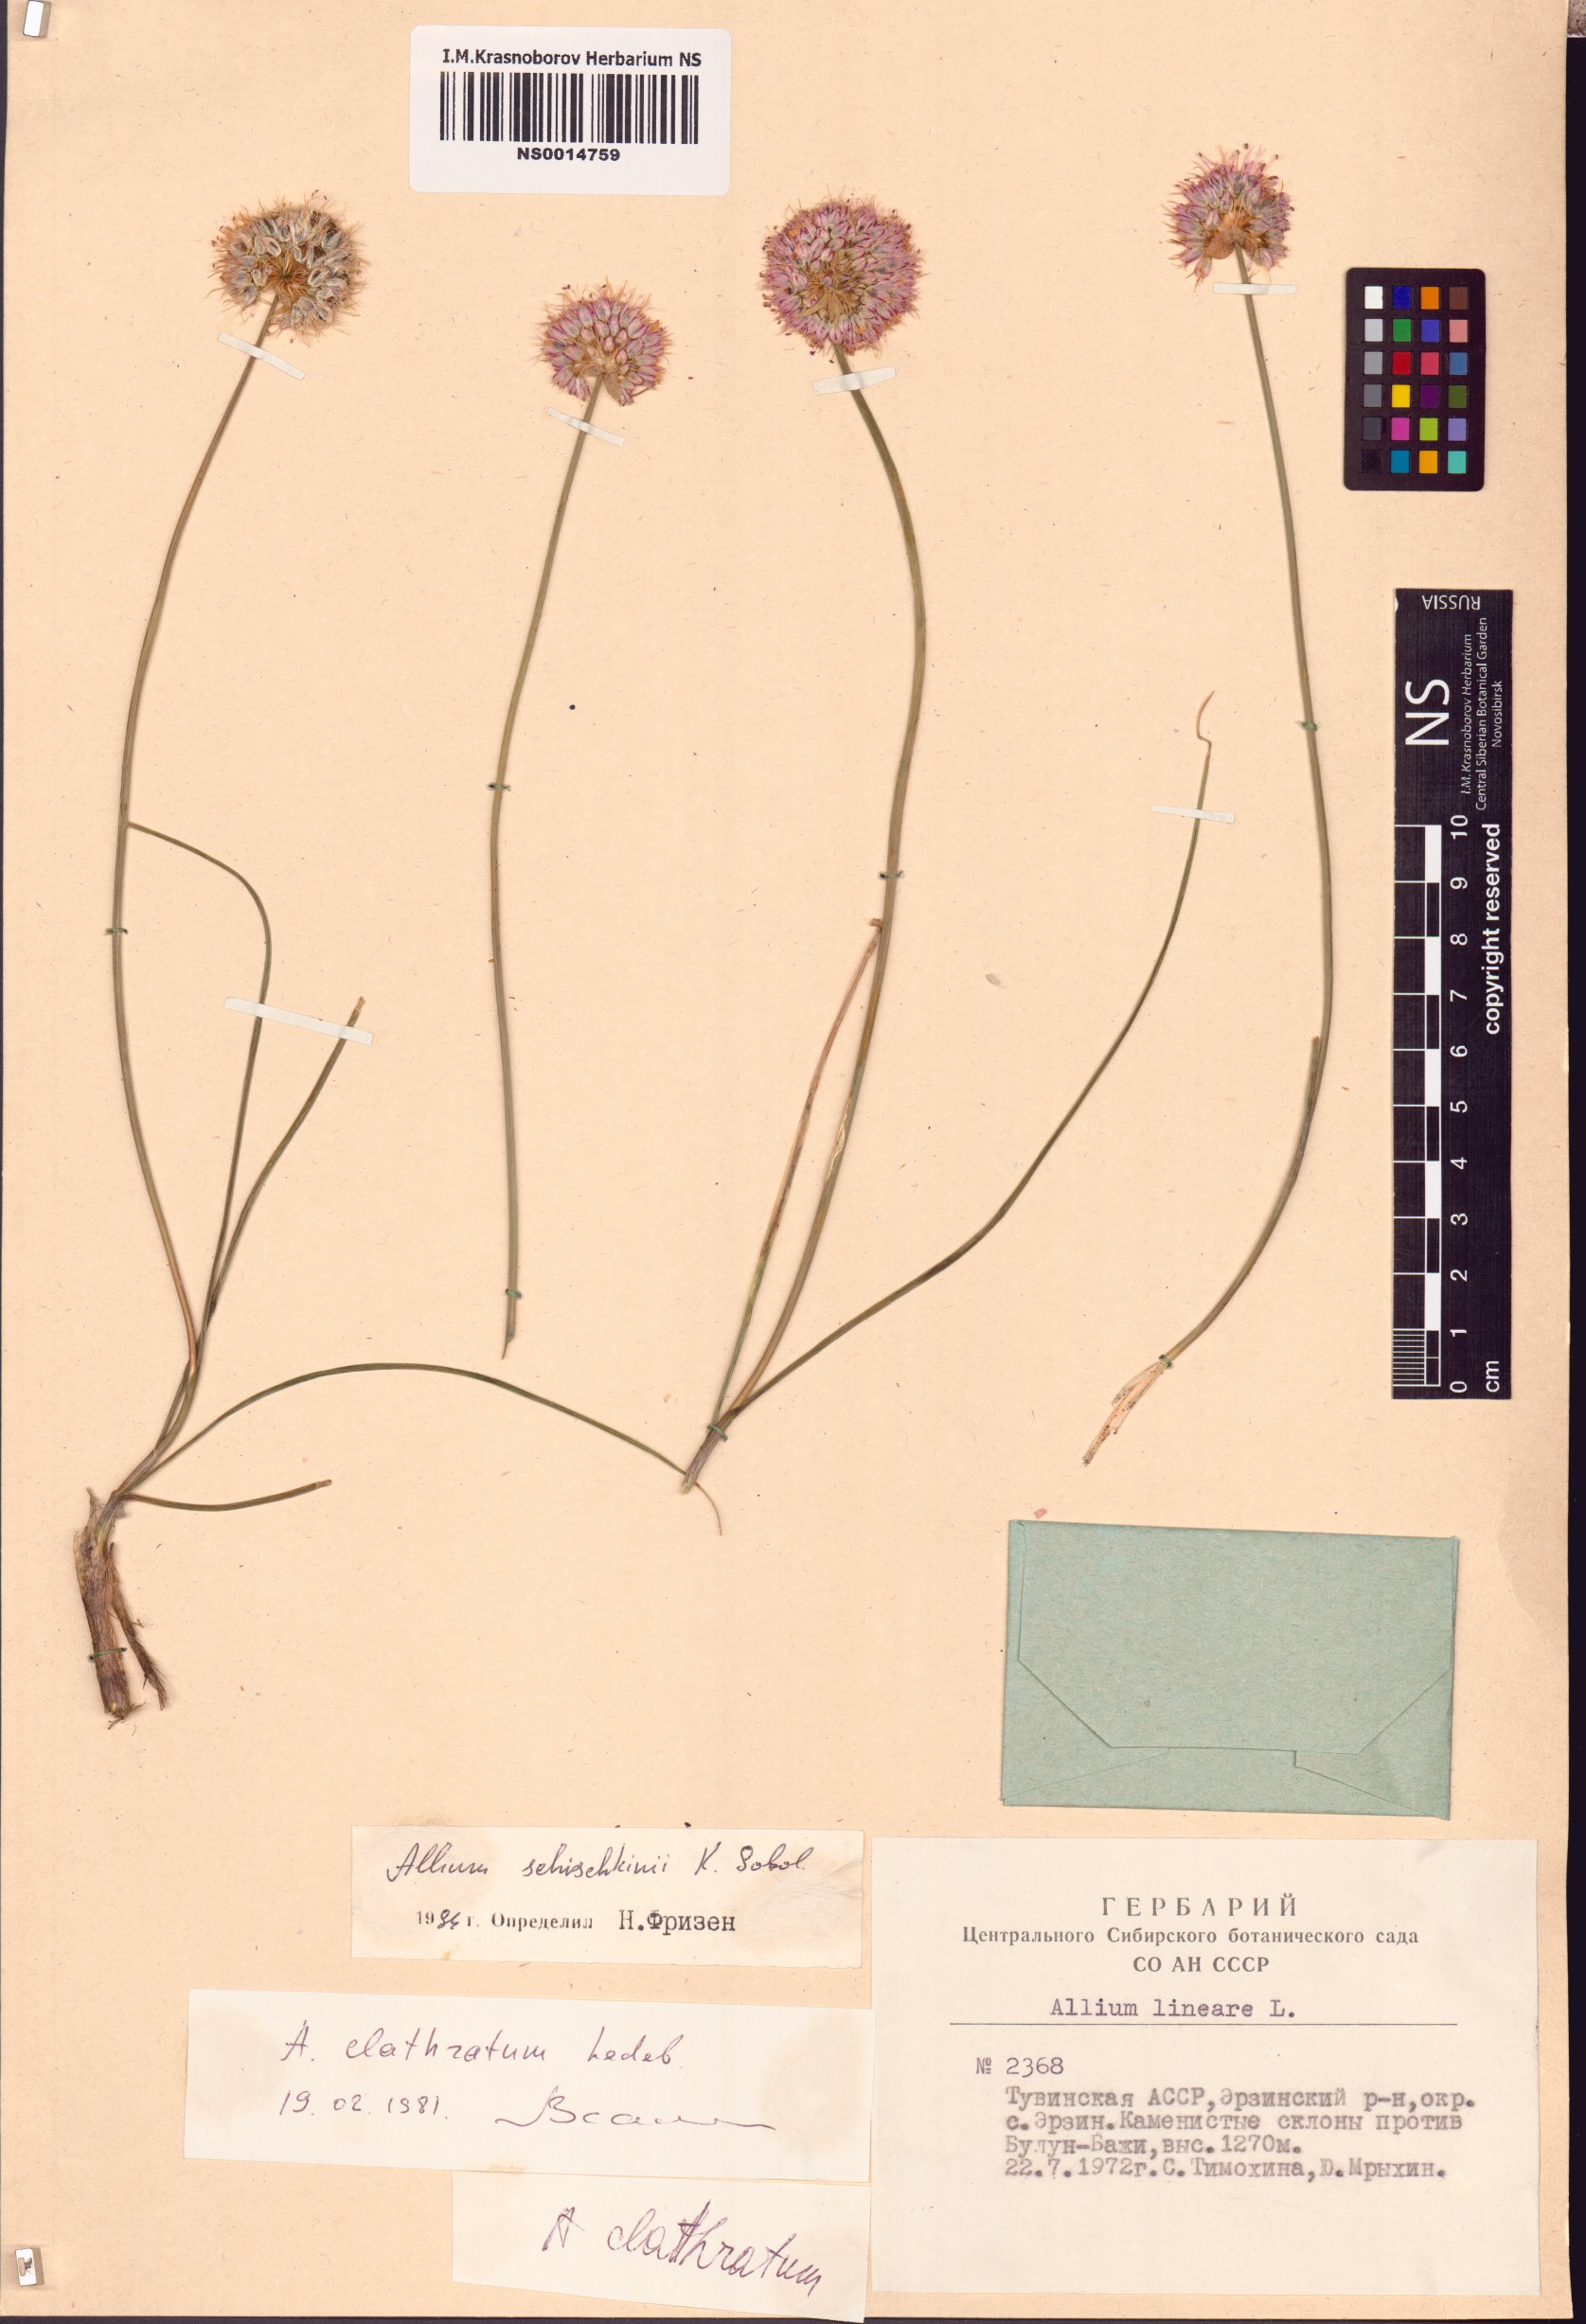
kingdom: Plantae
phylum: Tracheophyta
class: Liliopsida
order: Asparagales
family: Amaryllidaceae
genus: Allium
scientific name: Allium schischkinii
